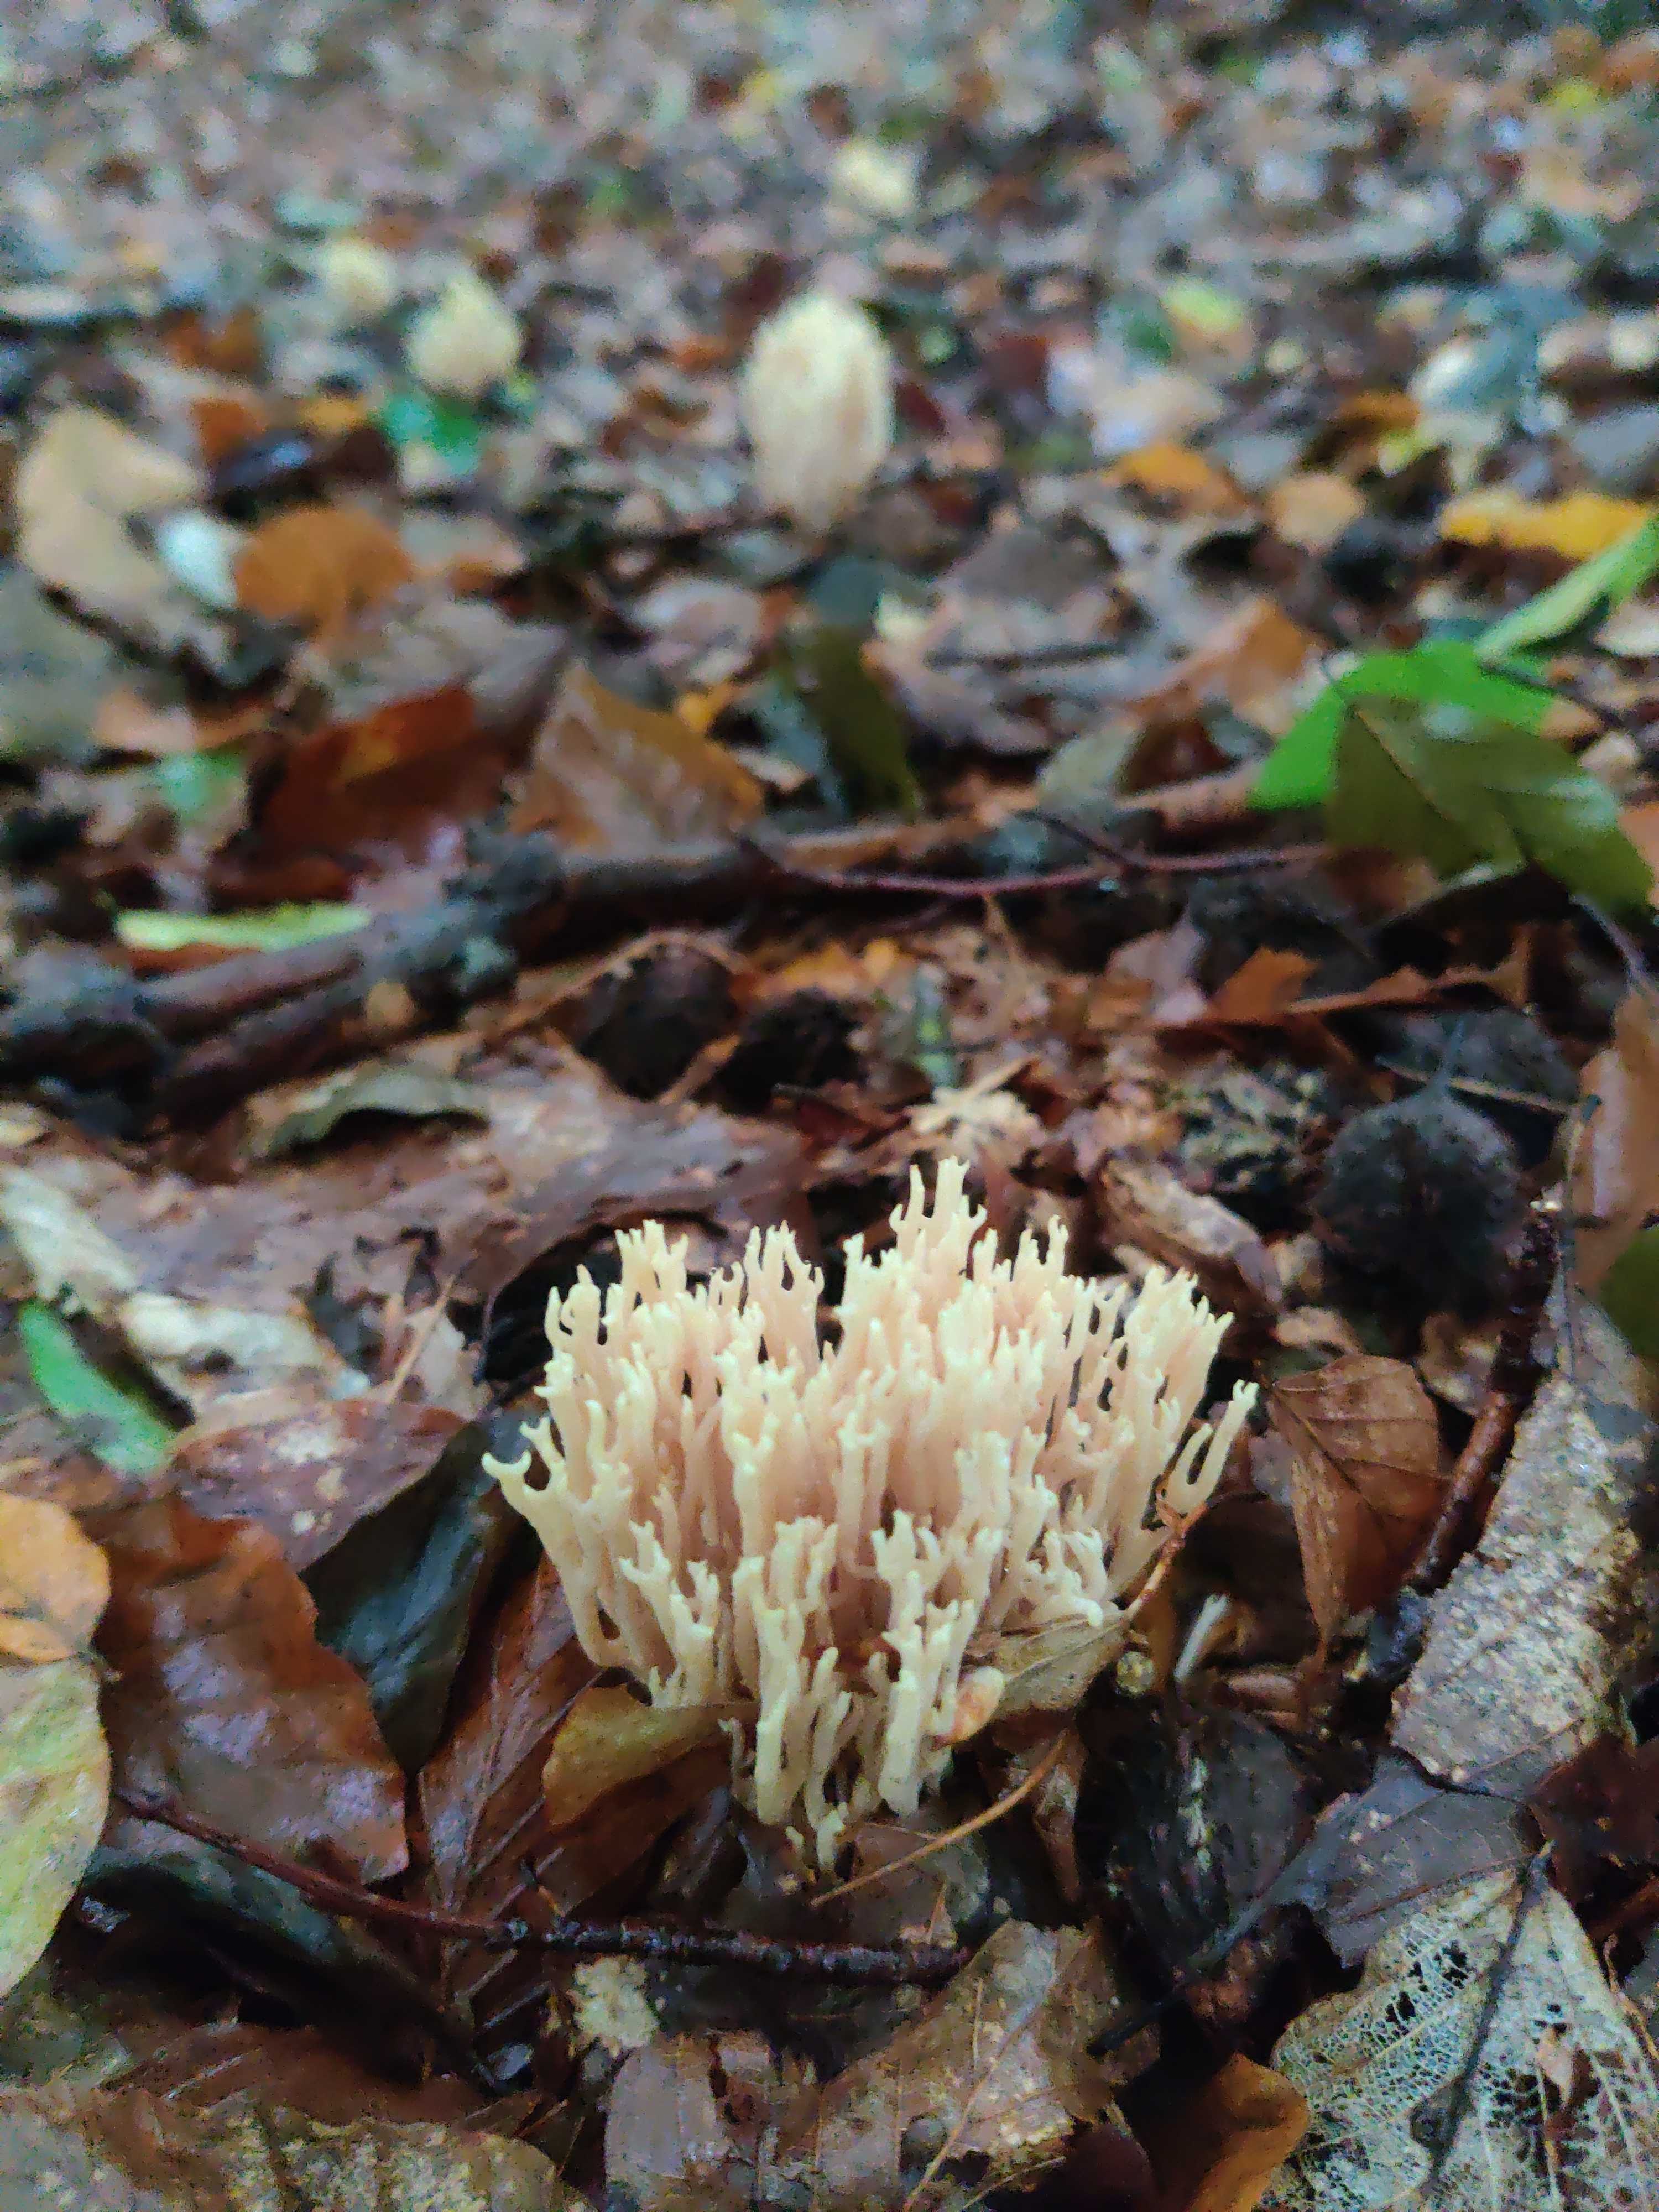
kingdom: Fungi
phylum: Basidiomycota
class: Agaricomycetes
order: Gomphales
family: Gomphaceae
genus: Ramaria
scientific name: Ramaria
